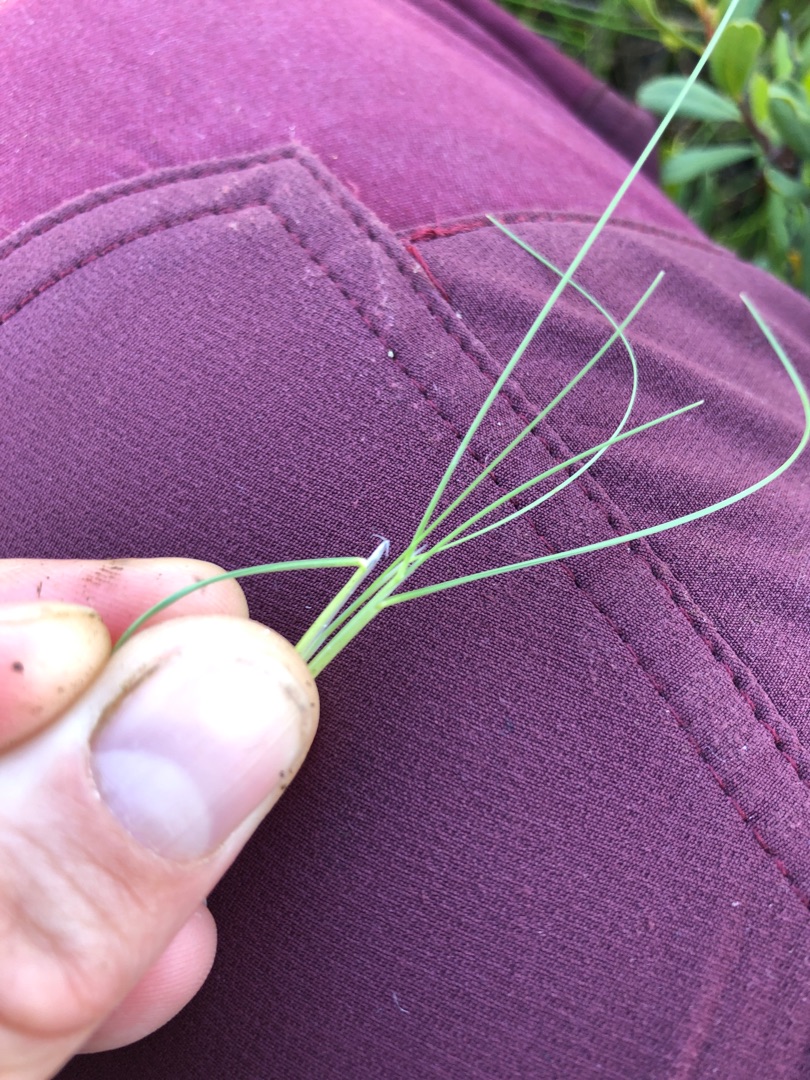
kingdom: Plantae
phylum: Tracheophyta
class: Liliopsida
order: Poales
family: Poaceae
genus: Deschampsia
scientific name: Deschampsia setacea
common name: Fin bunke
